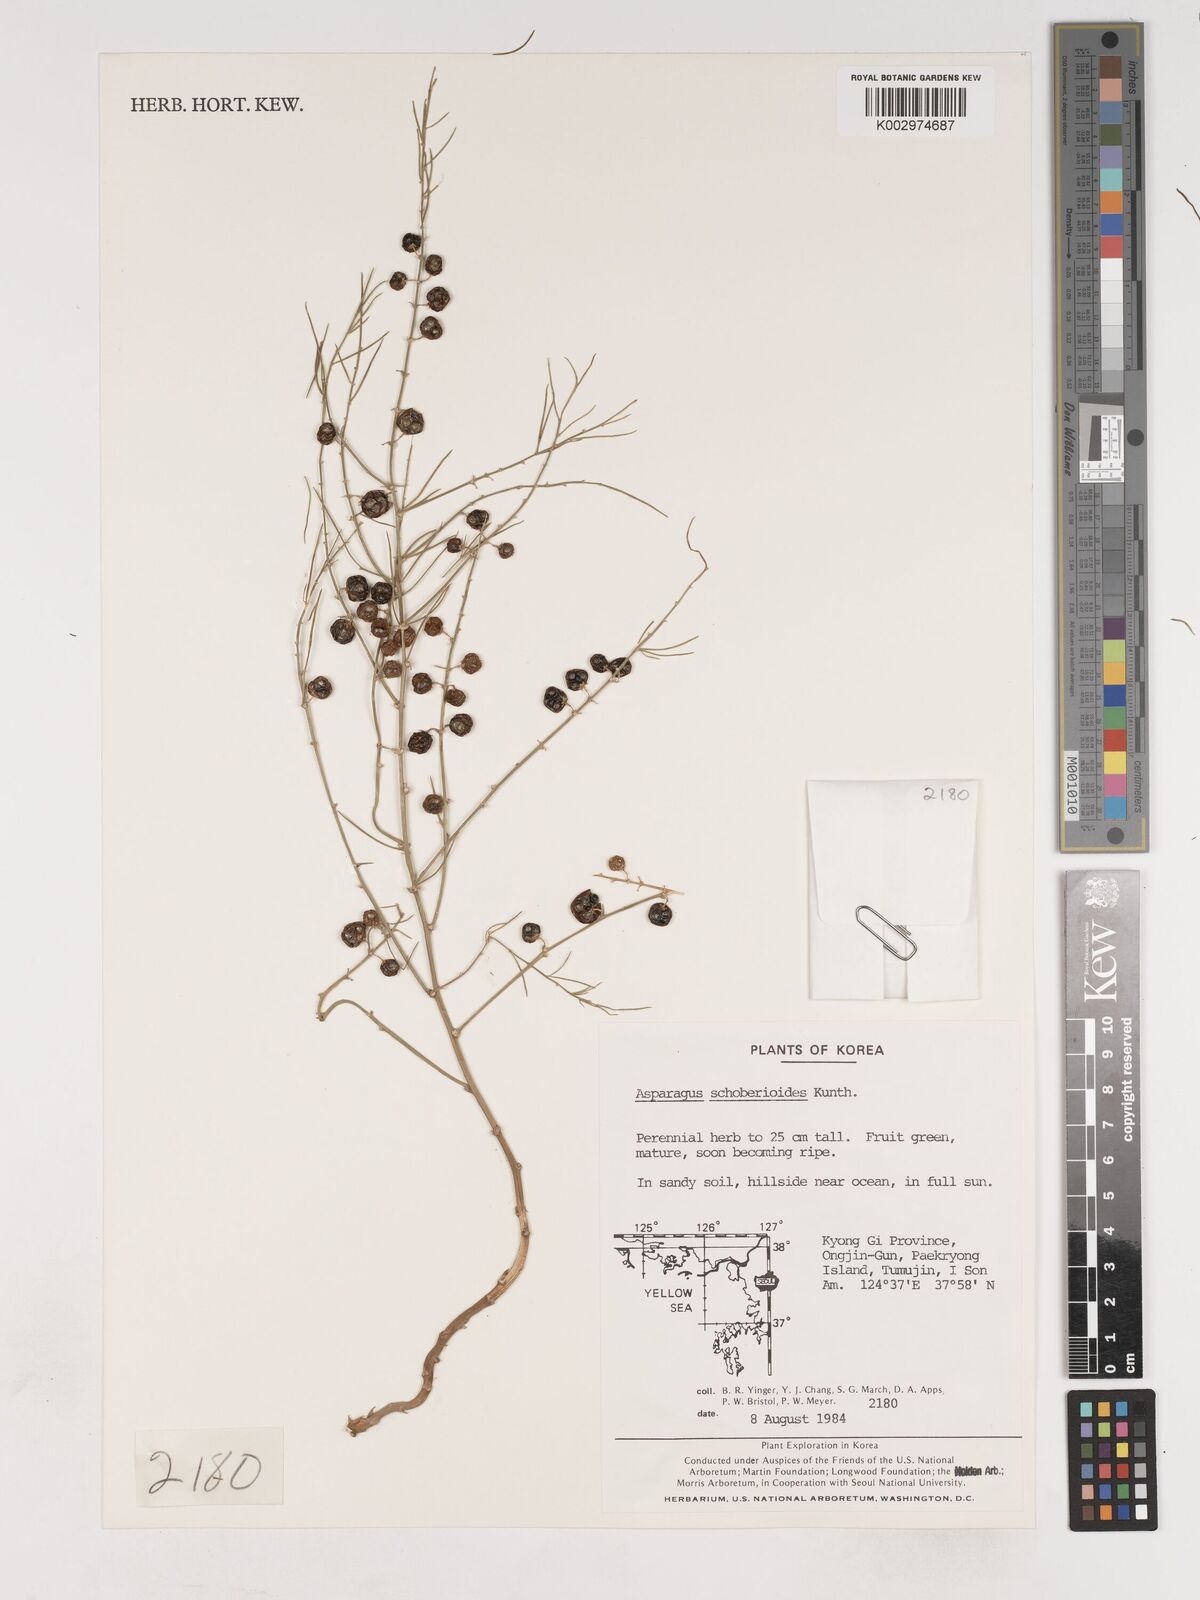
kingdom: Plantae
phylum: Tracheophyta
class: Liliopsida
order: Asparagales
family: Asparagaceae
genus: Asparagus
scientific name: Asparagus schoberioides
